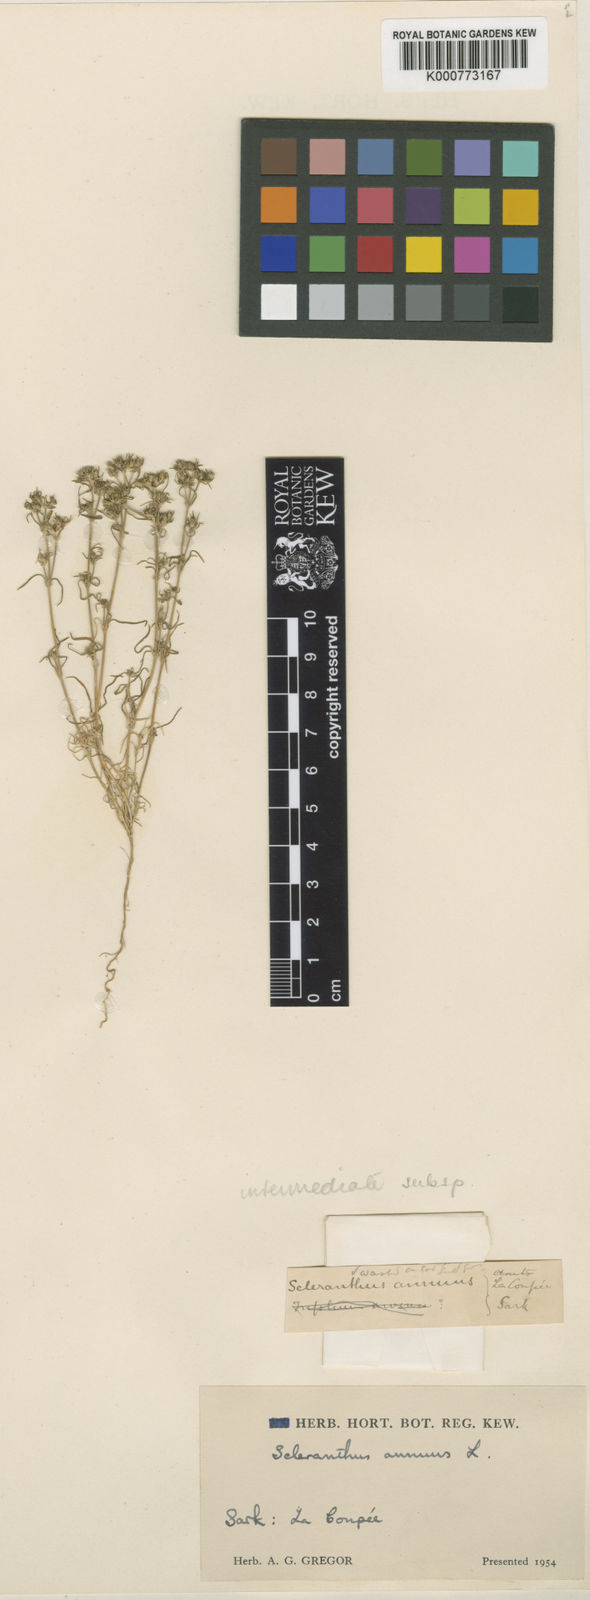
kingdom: Plantae
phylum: Tracheophyta
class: Magnoliopsida
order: Caryophyllales
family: Caryophyllaceae
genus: Scleranthus
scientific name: Scleranthus annuus
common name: Annual knawel
